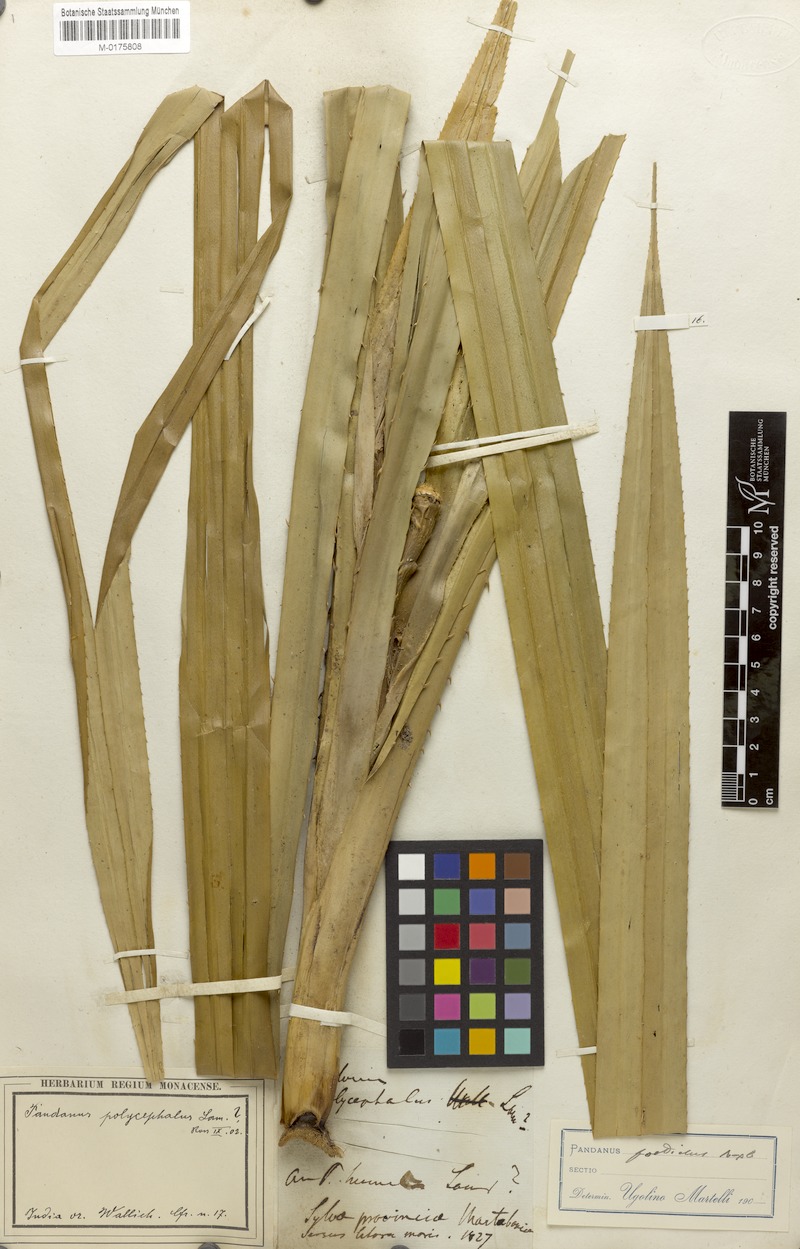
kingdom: Plantae
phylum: Tracheophyta
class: Liliopsida
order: Pandanales
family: Pandanaceae
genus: Benstonea
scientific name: Benstonea foetida
